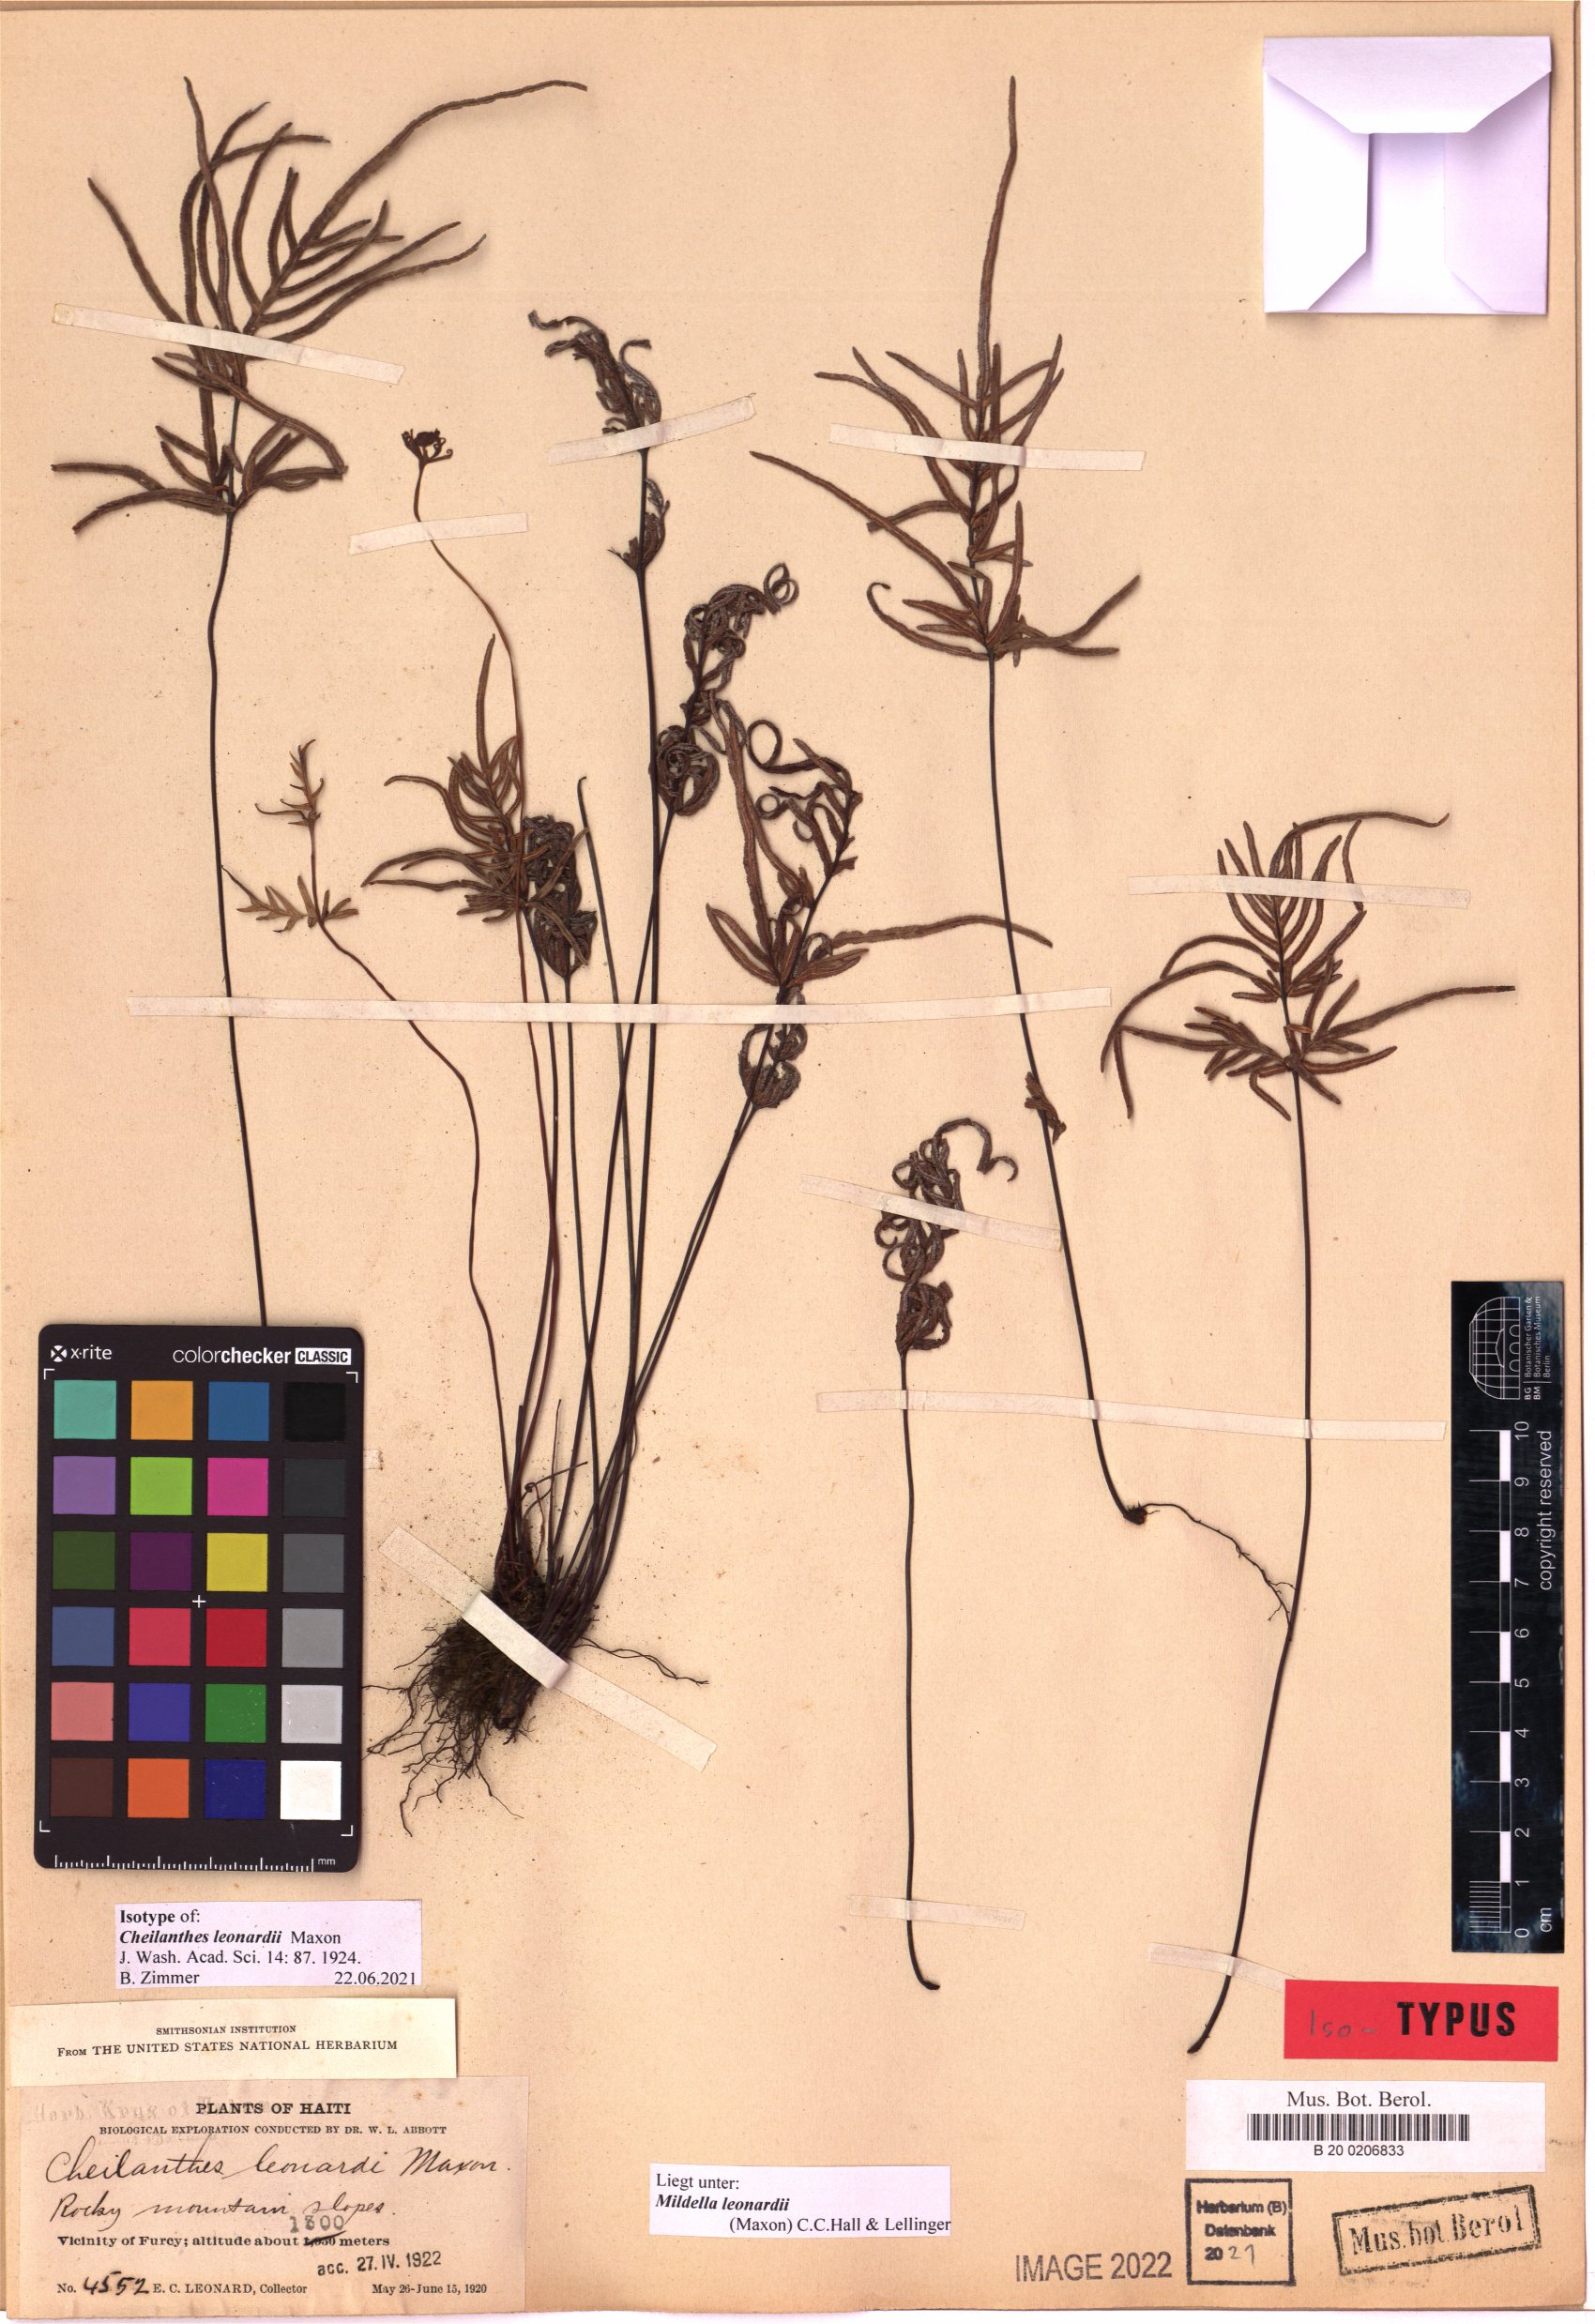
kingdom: Plantae
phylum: Tracheophyta
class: Polypodiopsida
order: Polypodiales
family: Pteridaceae
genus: Mildella
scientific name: Mildella leonardii
